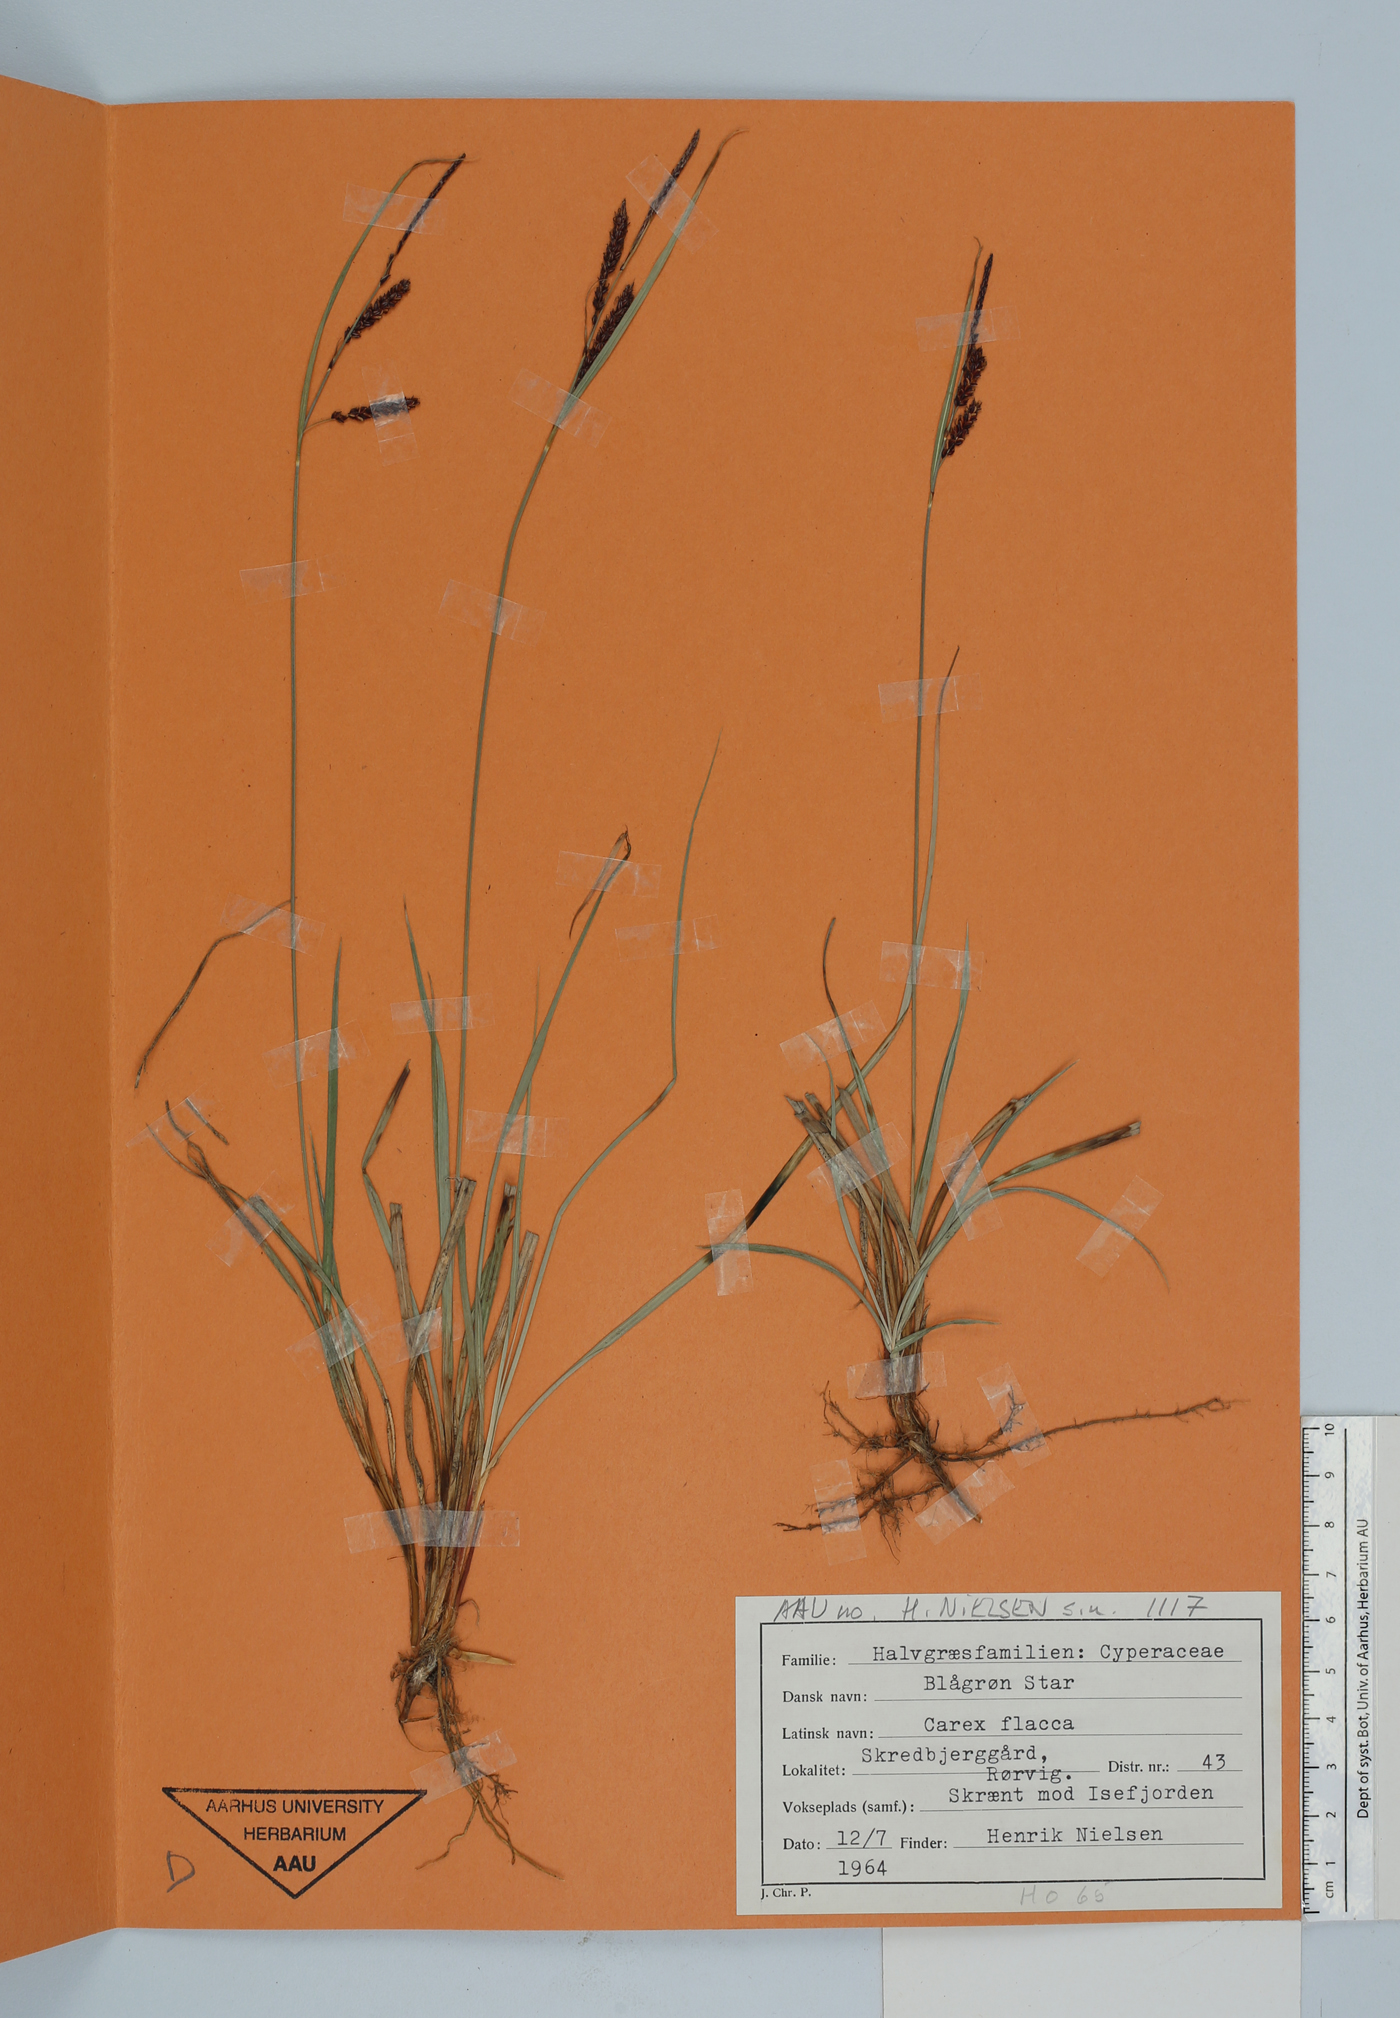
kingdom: Plantae
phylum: Tracheophyta
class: Liliopsida
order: Poales
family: Cyperaceae
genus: Carex
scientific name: Carex flacca
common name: Glaucous sedge
